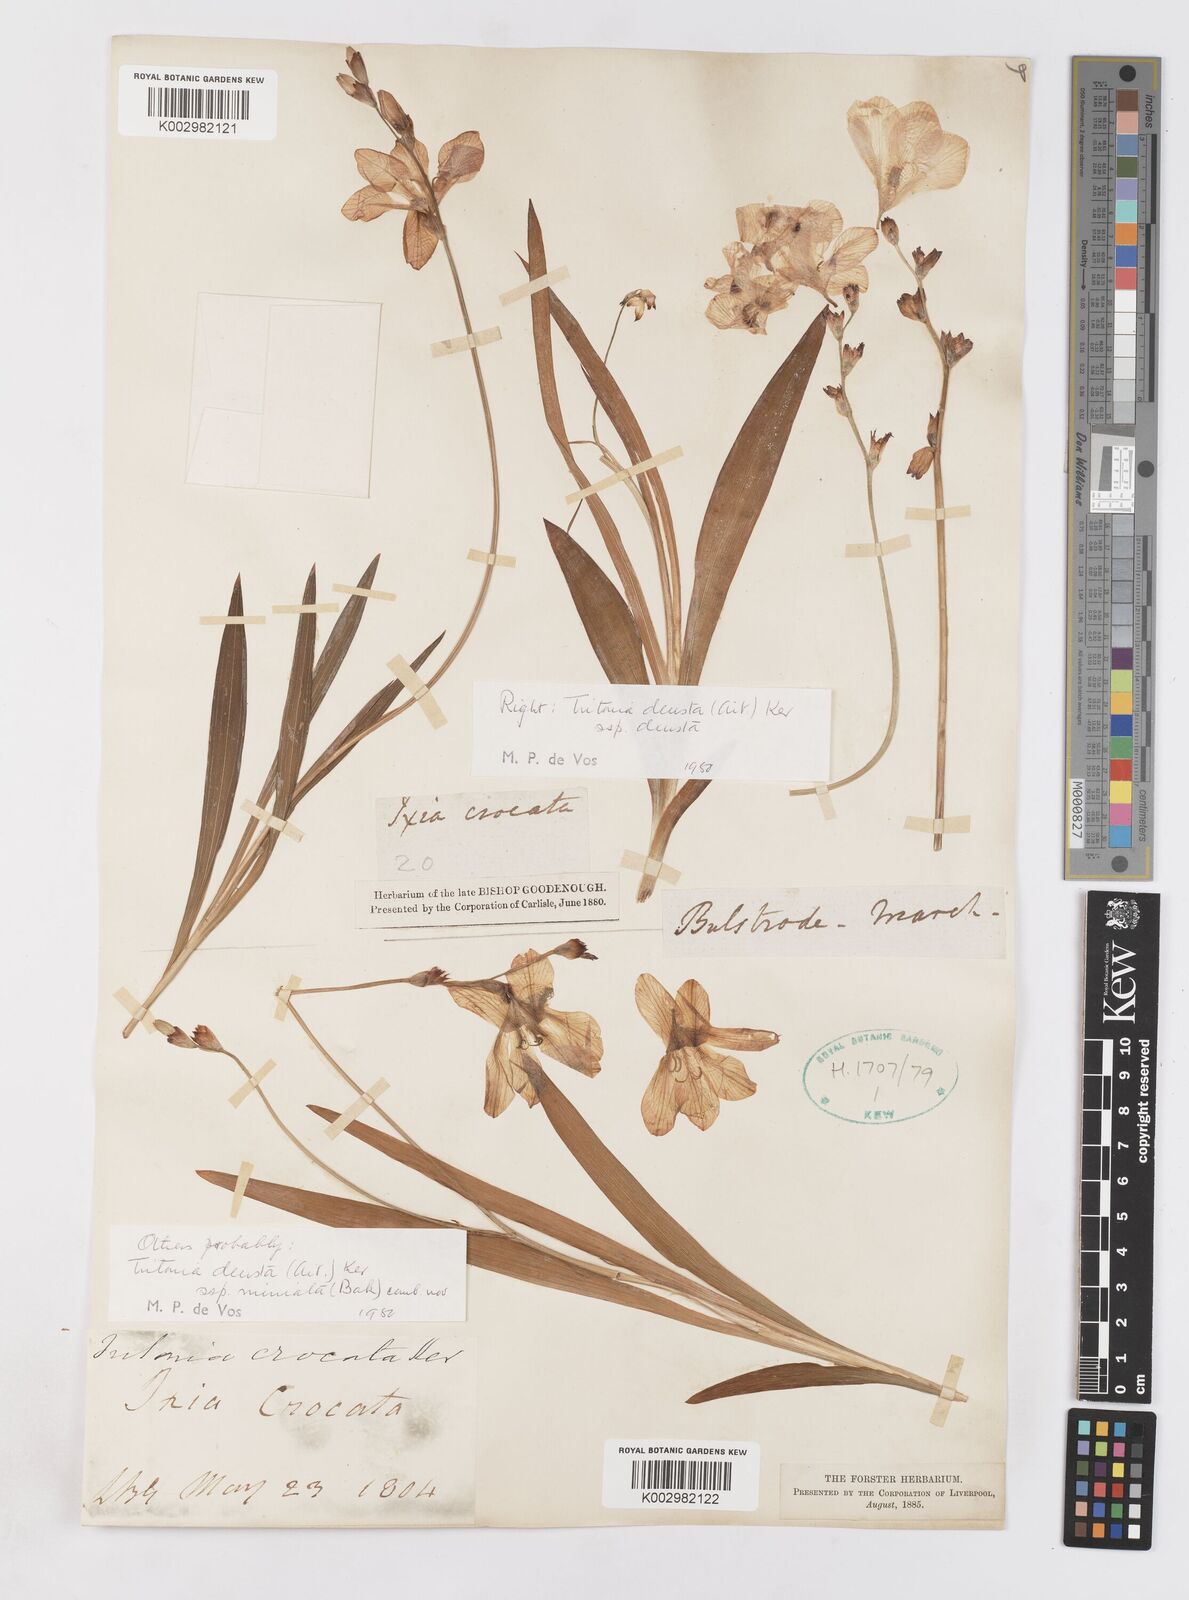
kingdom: Plantae
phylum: Tracheophyta
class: Liliopsida
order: Asparagales
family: Iridaceae
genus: Tritonia
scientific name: Tritonia deusta
